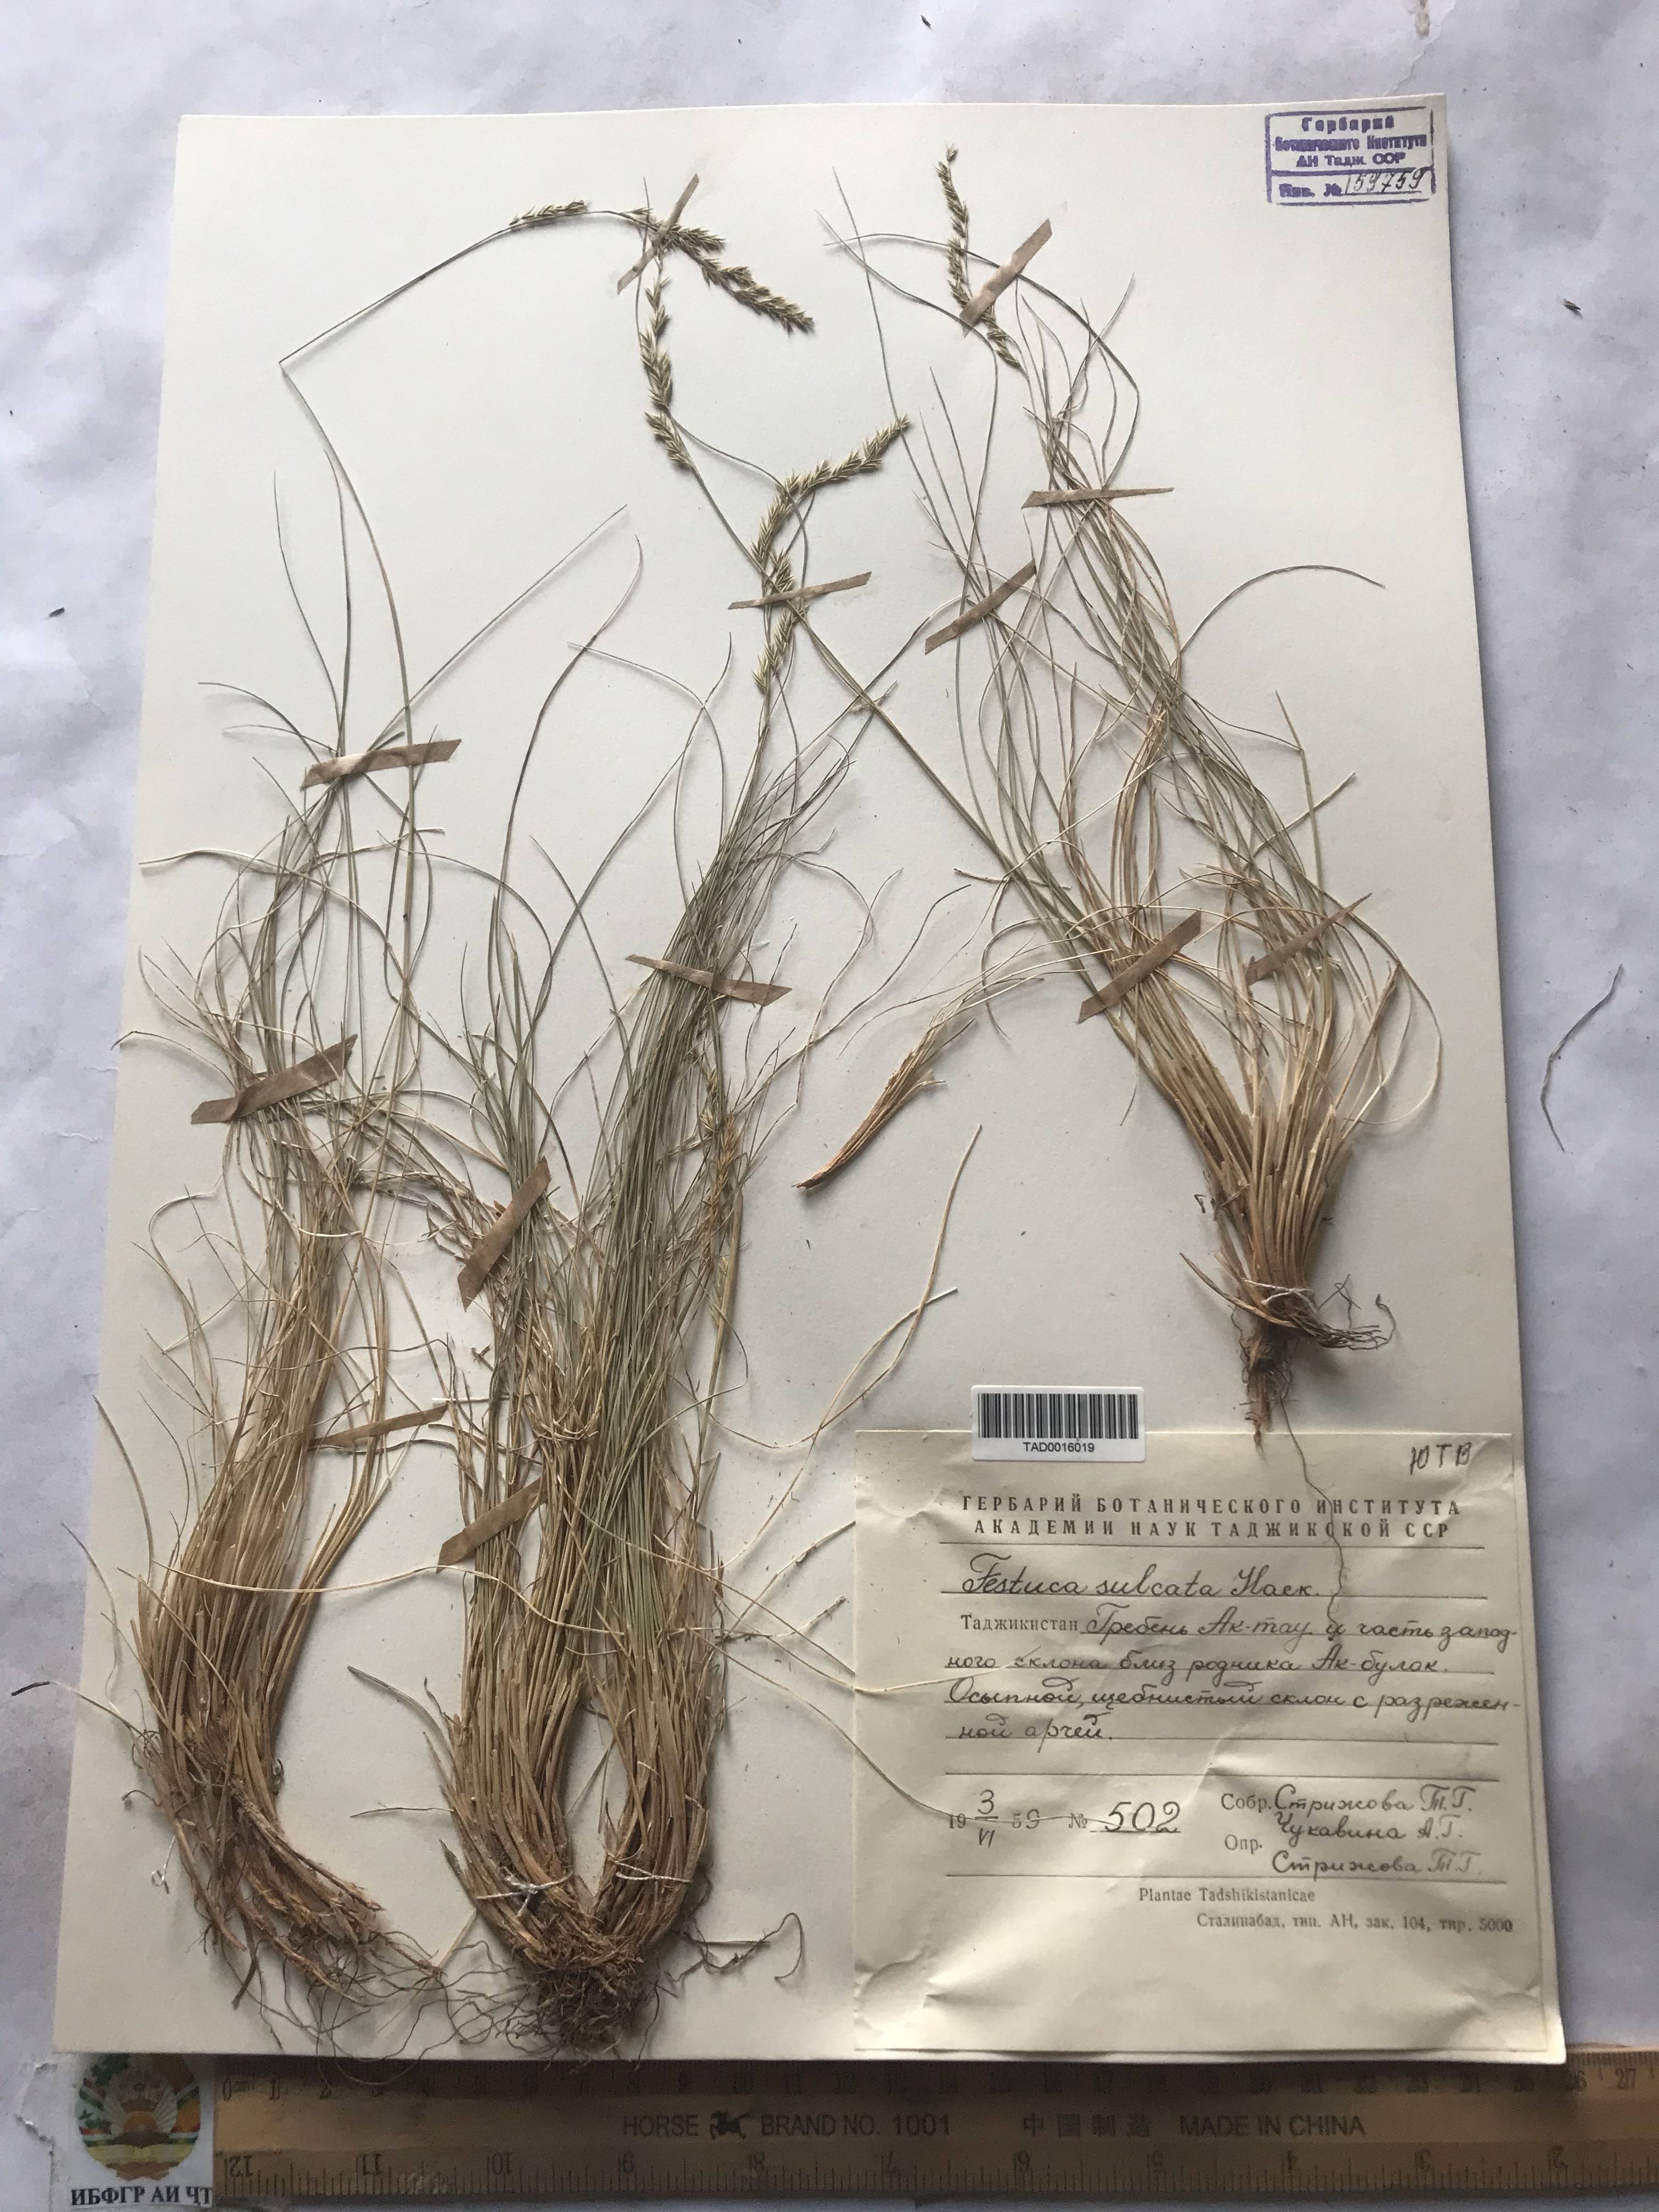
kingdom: Plantae
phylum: Tracheophyta
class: Liliopsida
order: Poales
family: Poaceae
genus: Festuca
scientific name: Festuca sulcata
